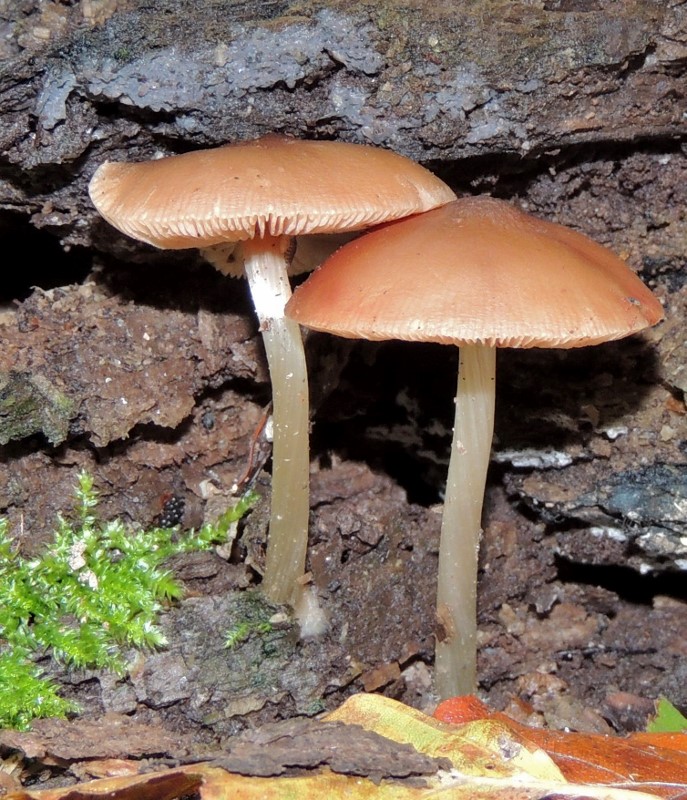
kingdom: Fungi
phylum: Basidiomycota
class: Agaricomycetes
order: Agaricales
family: Pluteaceae
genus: Pluteus
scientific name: Pluteus phlebophorus
